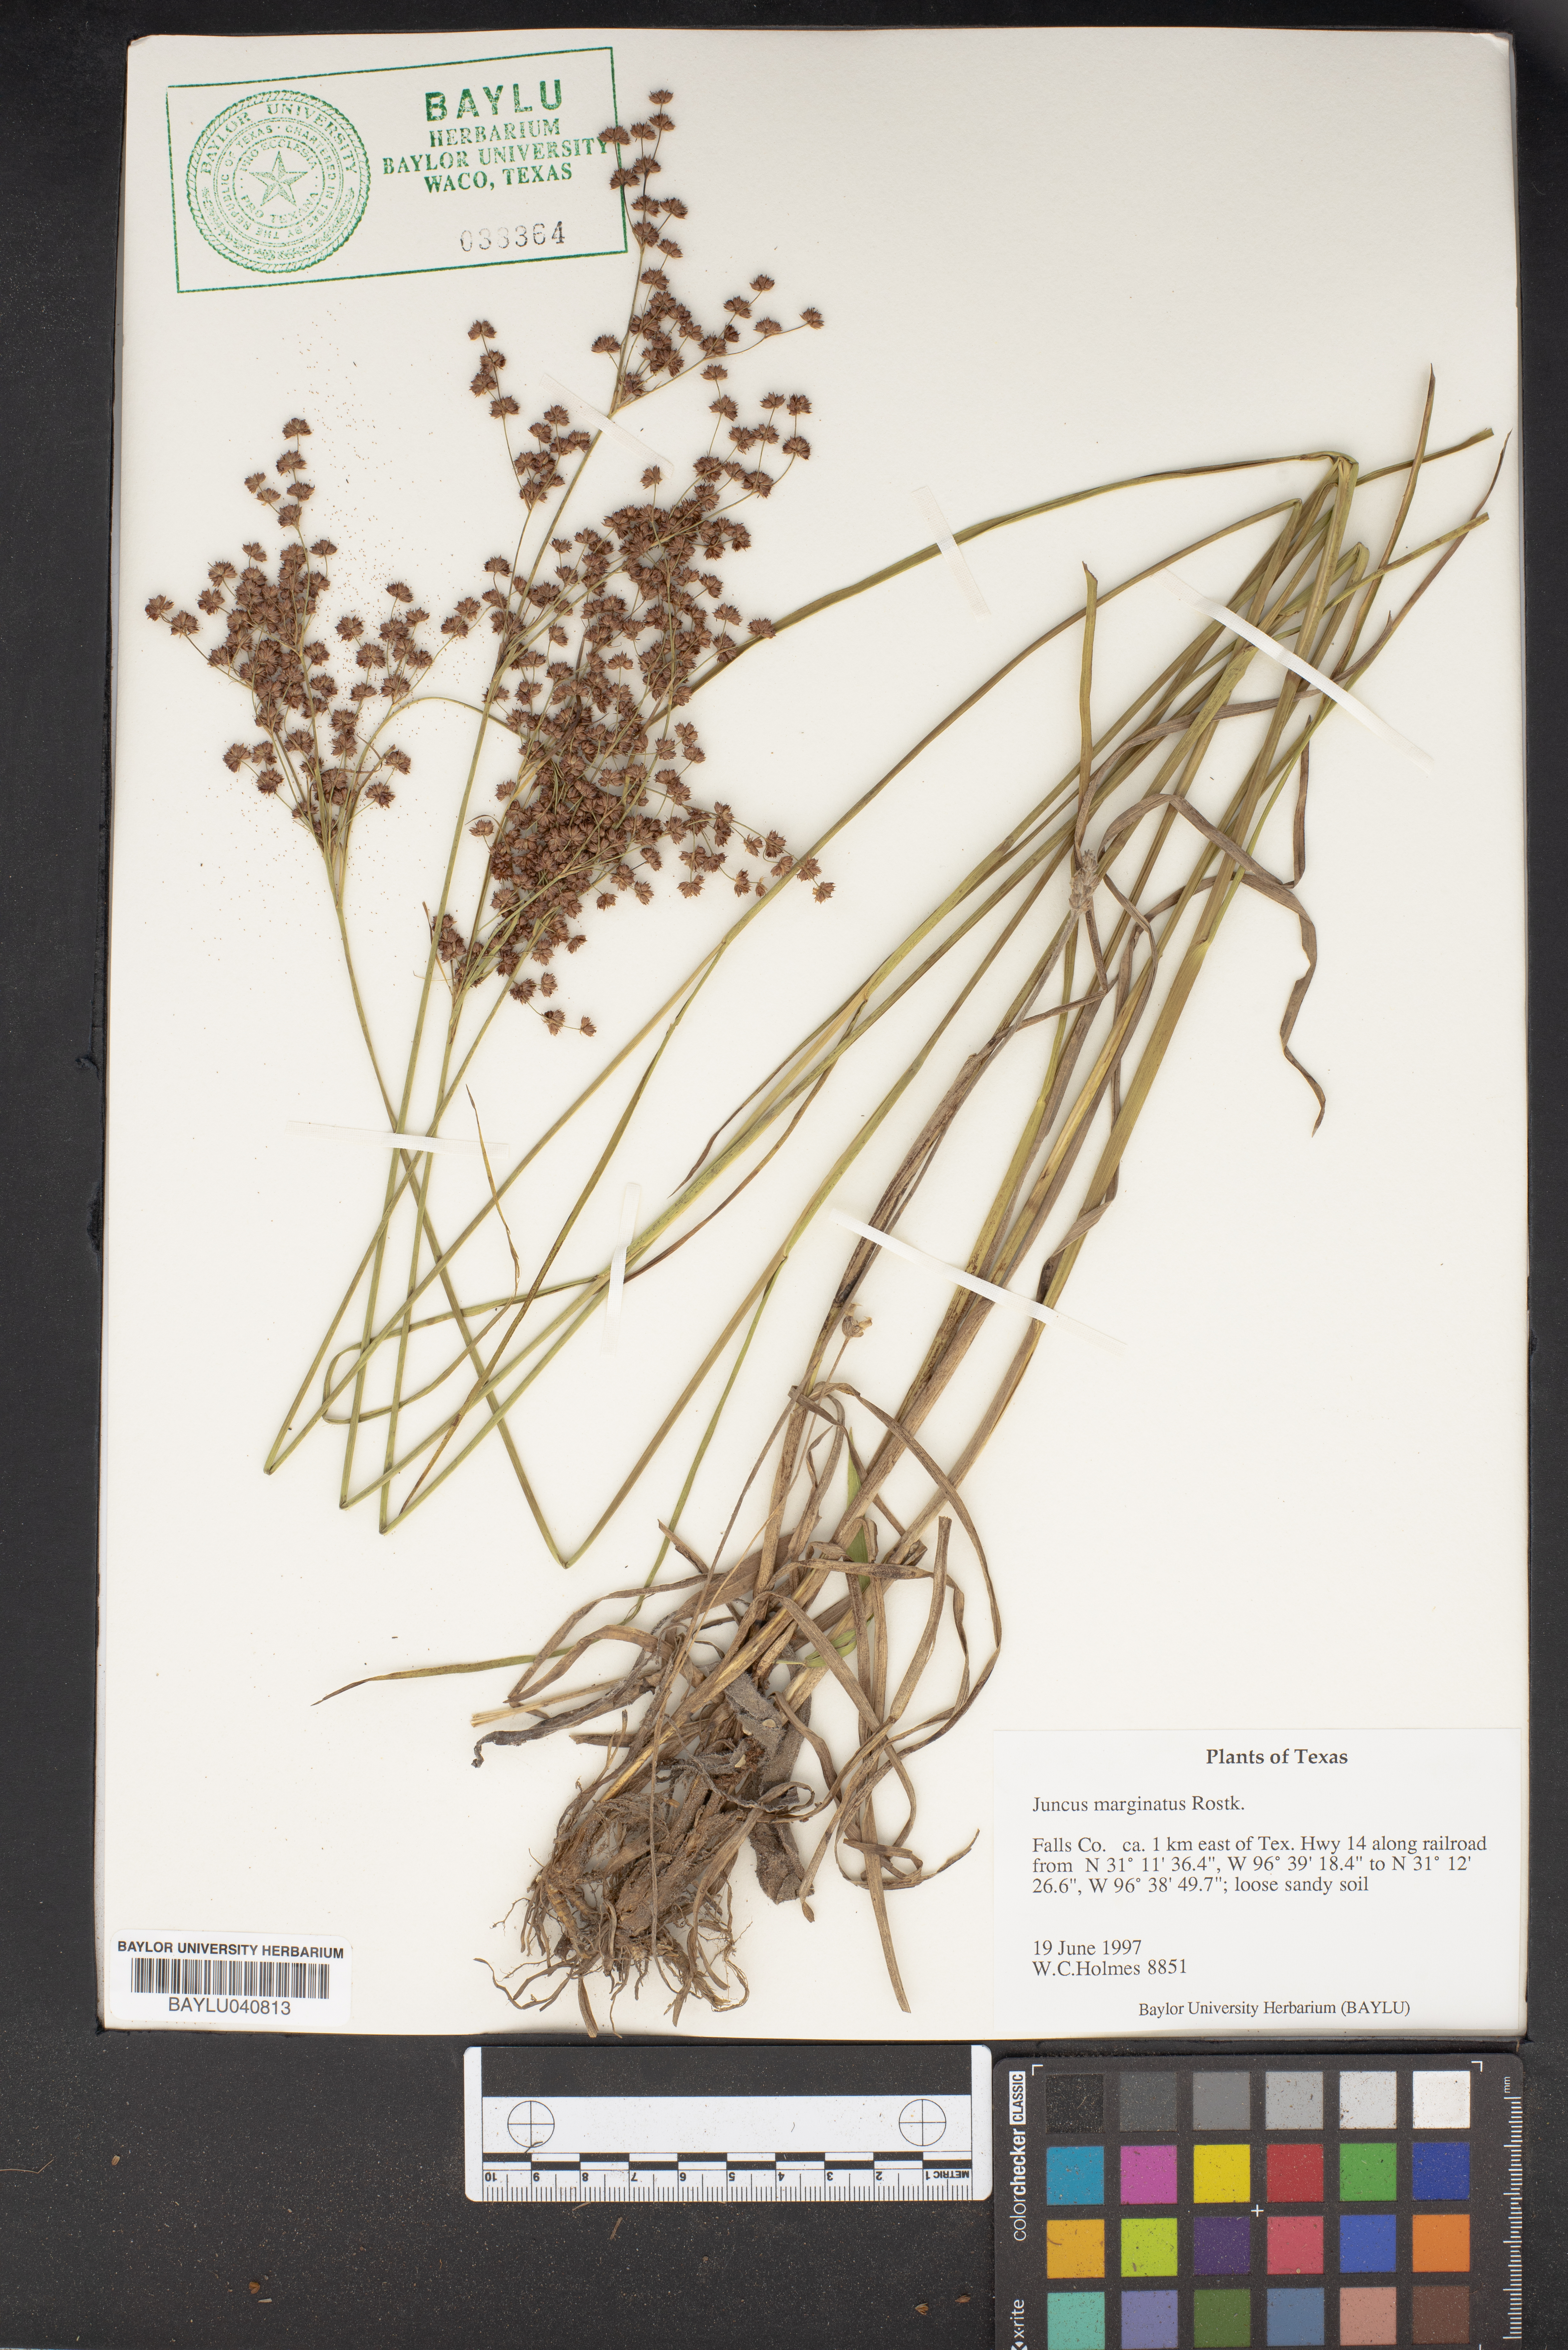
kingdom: Plantae
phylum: Tracheophyta
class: Liliopsida
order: Poales
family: Juncaceae
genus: Juncus
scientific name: Juncus marginatus
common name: Grass-leaf rush
